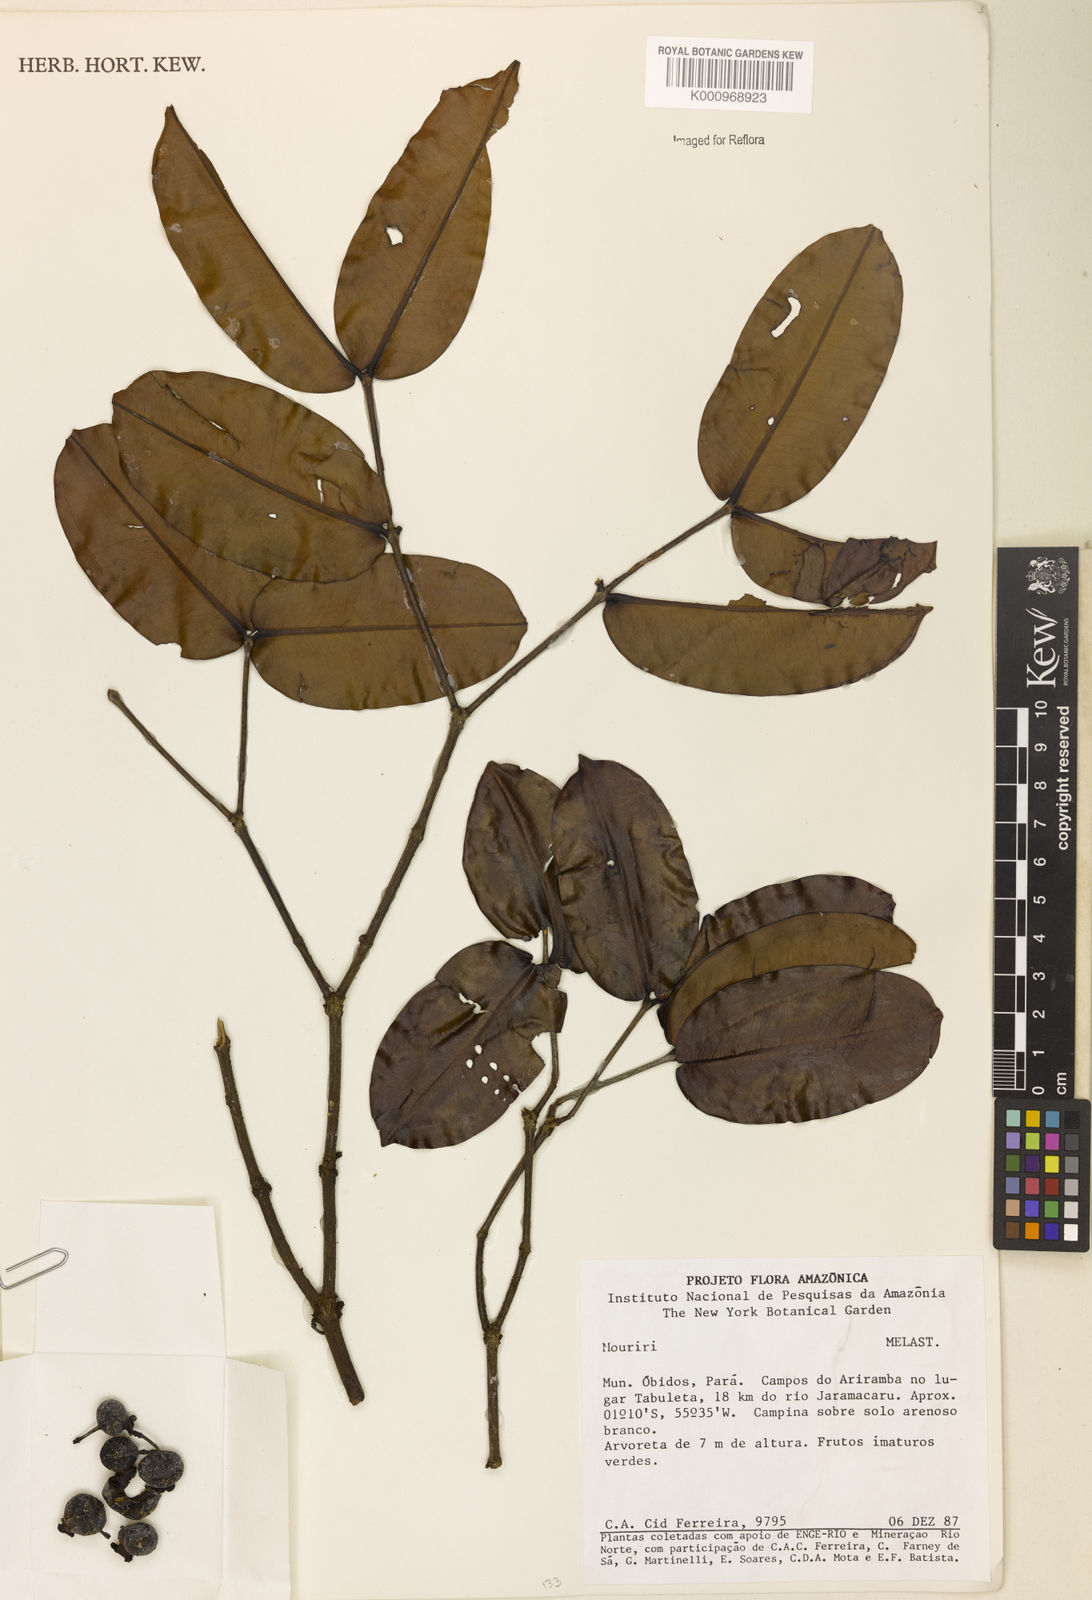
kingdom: Plantae
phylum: Tracheophyta
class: Magnoliopsida
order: Myrtales
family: Melastomataceae
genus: Mouriri
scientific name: Mouriri
